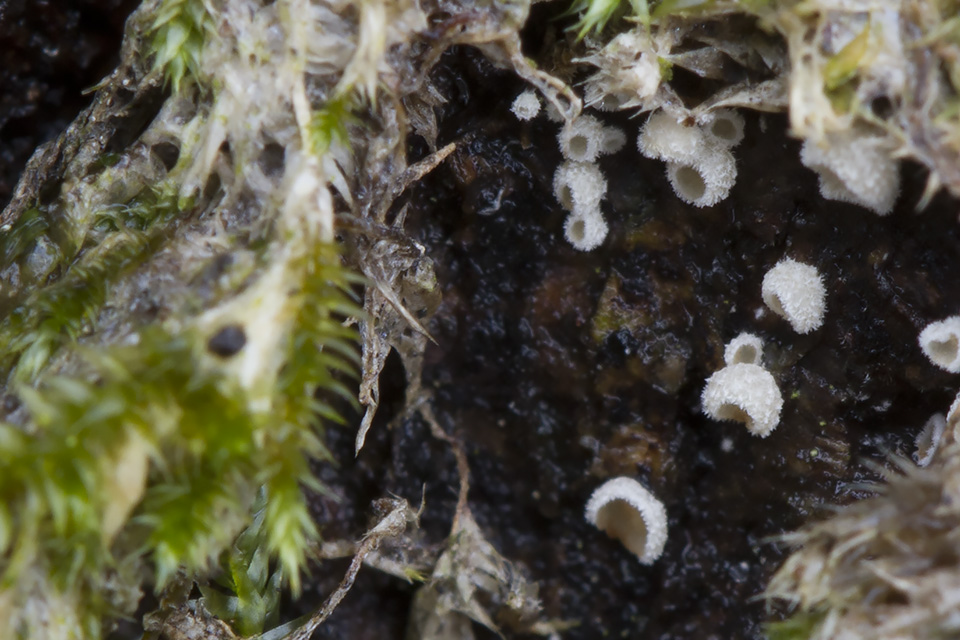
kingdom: Fungi
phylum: Basidiomycota
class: Agaricomycetes
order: Agaricales
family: Chromocyphellaceae
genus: Chromocyphella
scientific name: Chromocyphella muscicola
